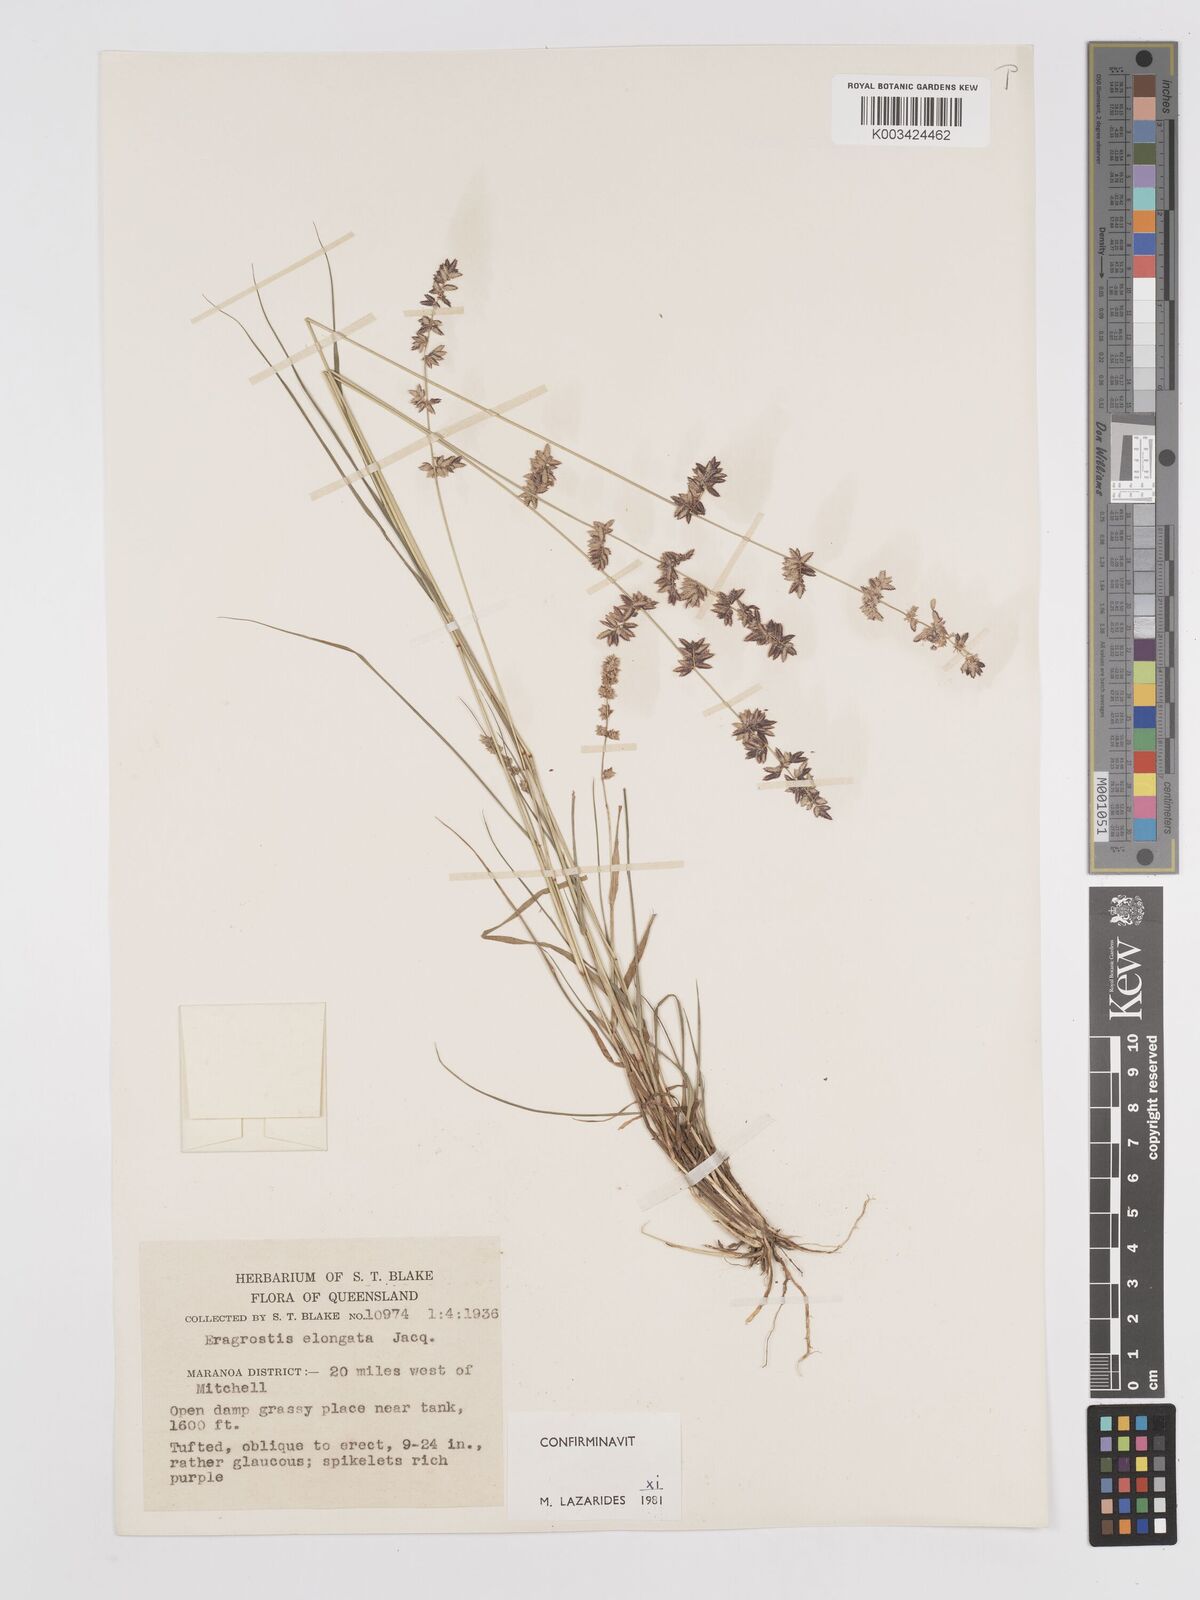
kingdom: Plantae
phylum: Tracheophyta
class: Liliopsida
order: Poales
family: Poaceae
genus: Eragrostis
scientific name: Eragrostis elongata
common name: Long lovegrass
